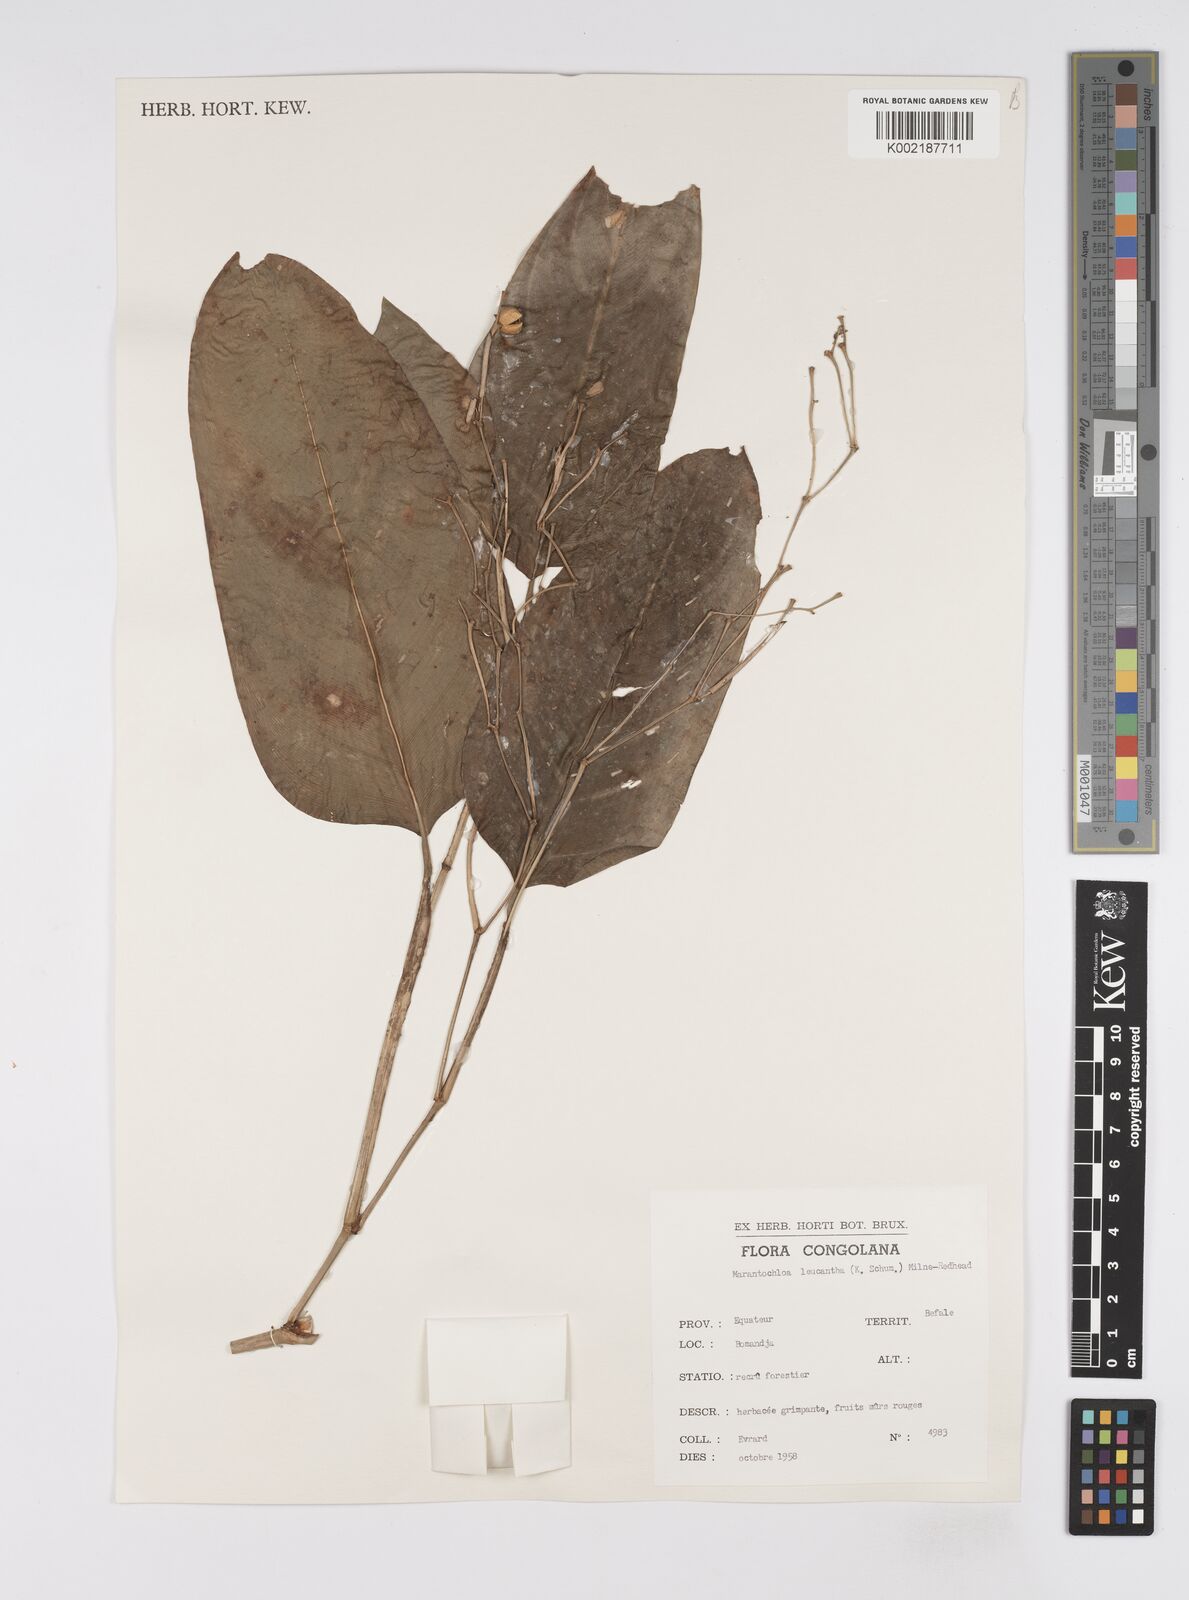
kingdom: Plantae
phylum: Tracheophyta
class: Liliopsida
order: Zingiberales
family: Marantaceae
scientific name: Marantaceae
